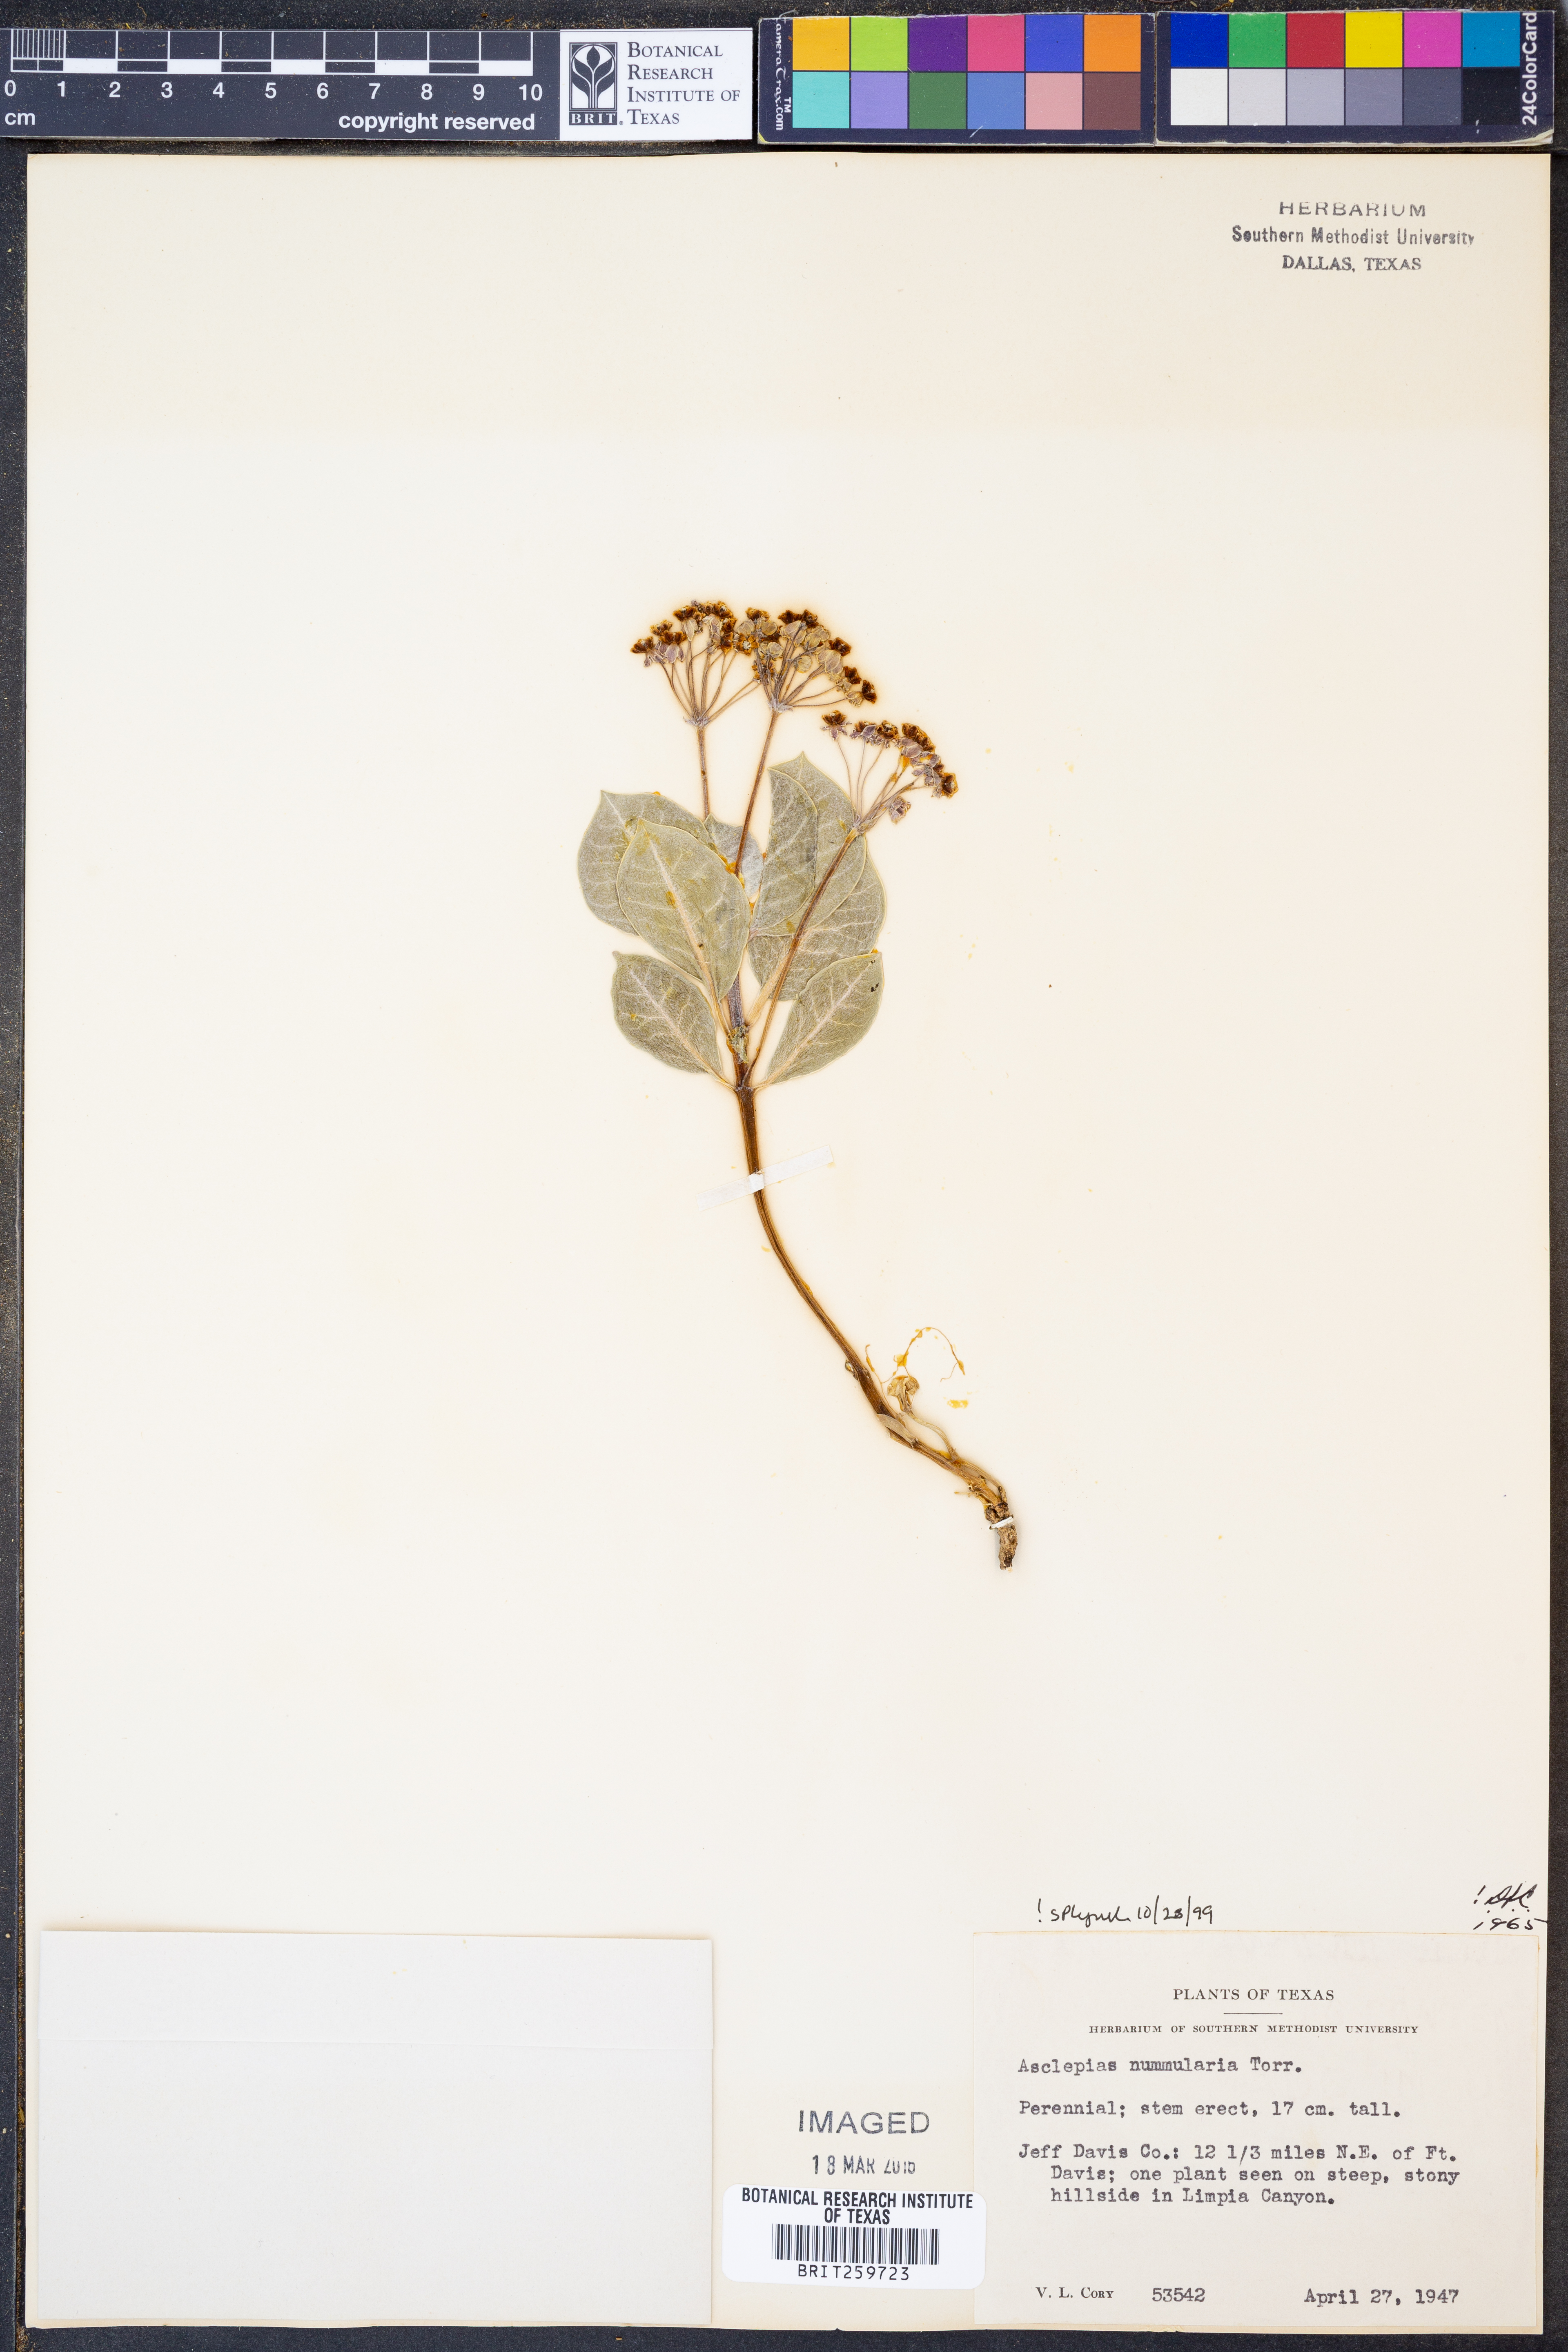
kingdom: Plantae
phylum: Tracheophyta
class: Magnoliopsida
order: Gentianales
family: Apocynaceae
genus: Asclepias
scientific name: Asclepias nummularia
